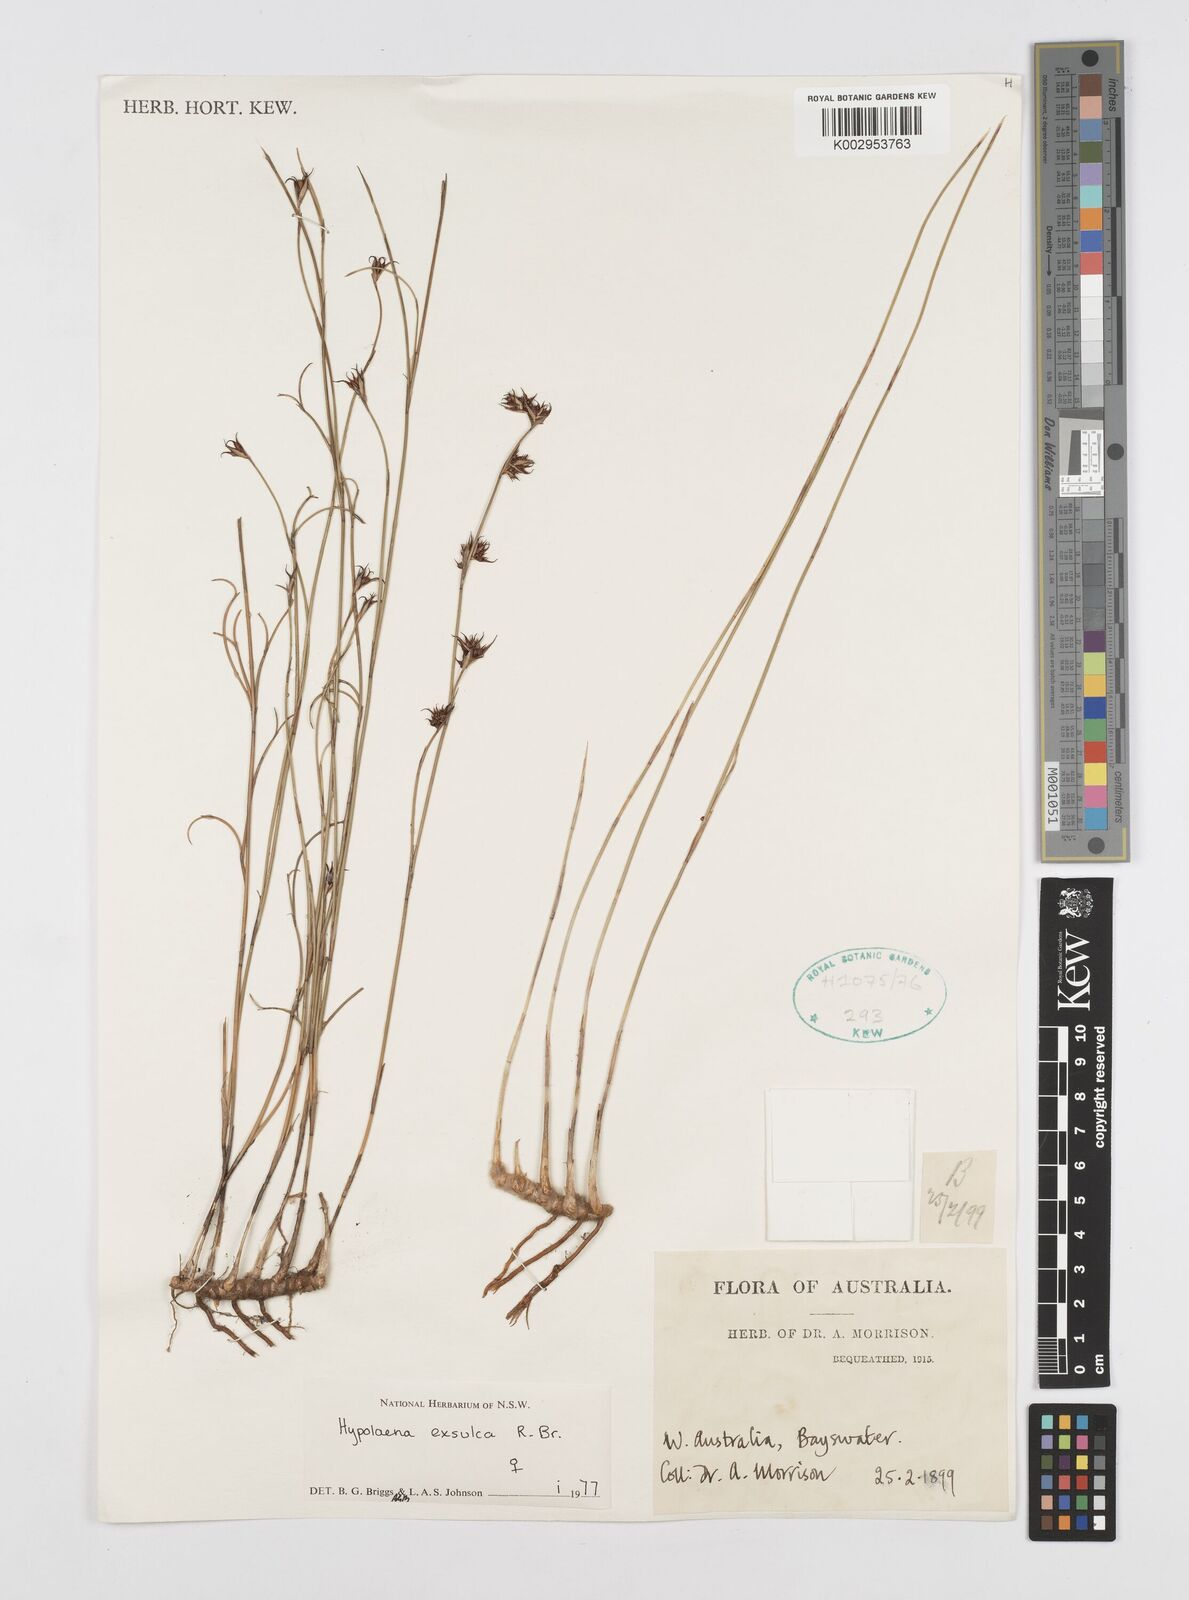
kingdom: Plantae
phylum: Tracheophyta
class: Liliopsida
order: Poales
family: Restionaceae
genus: Hypolaena
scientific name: Hypolaena exsulca
